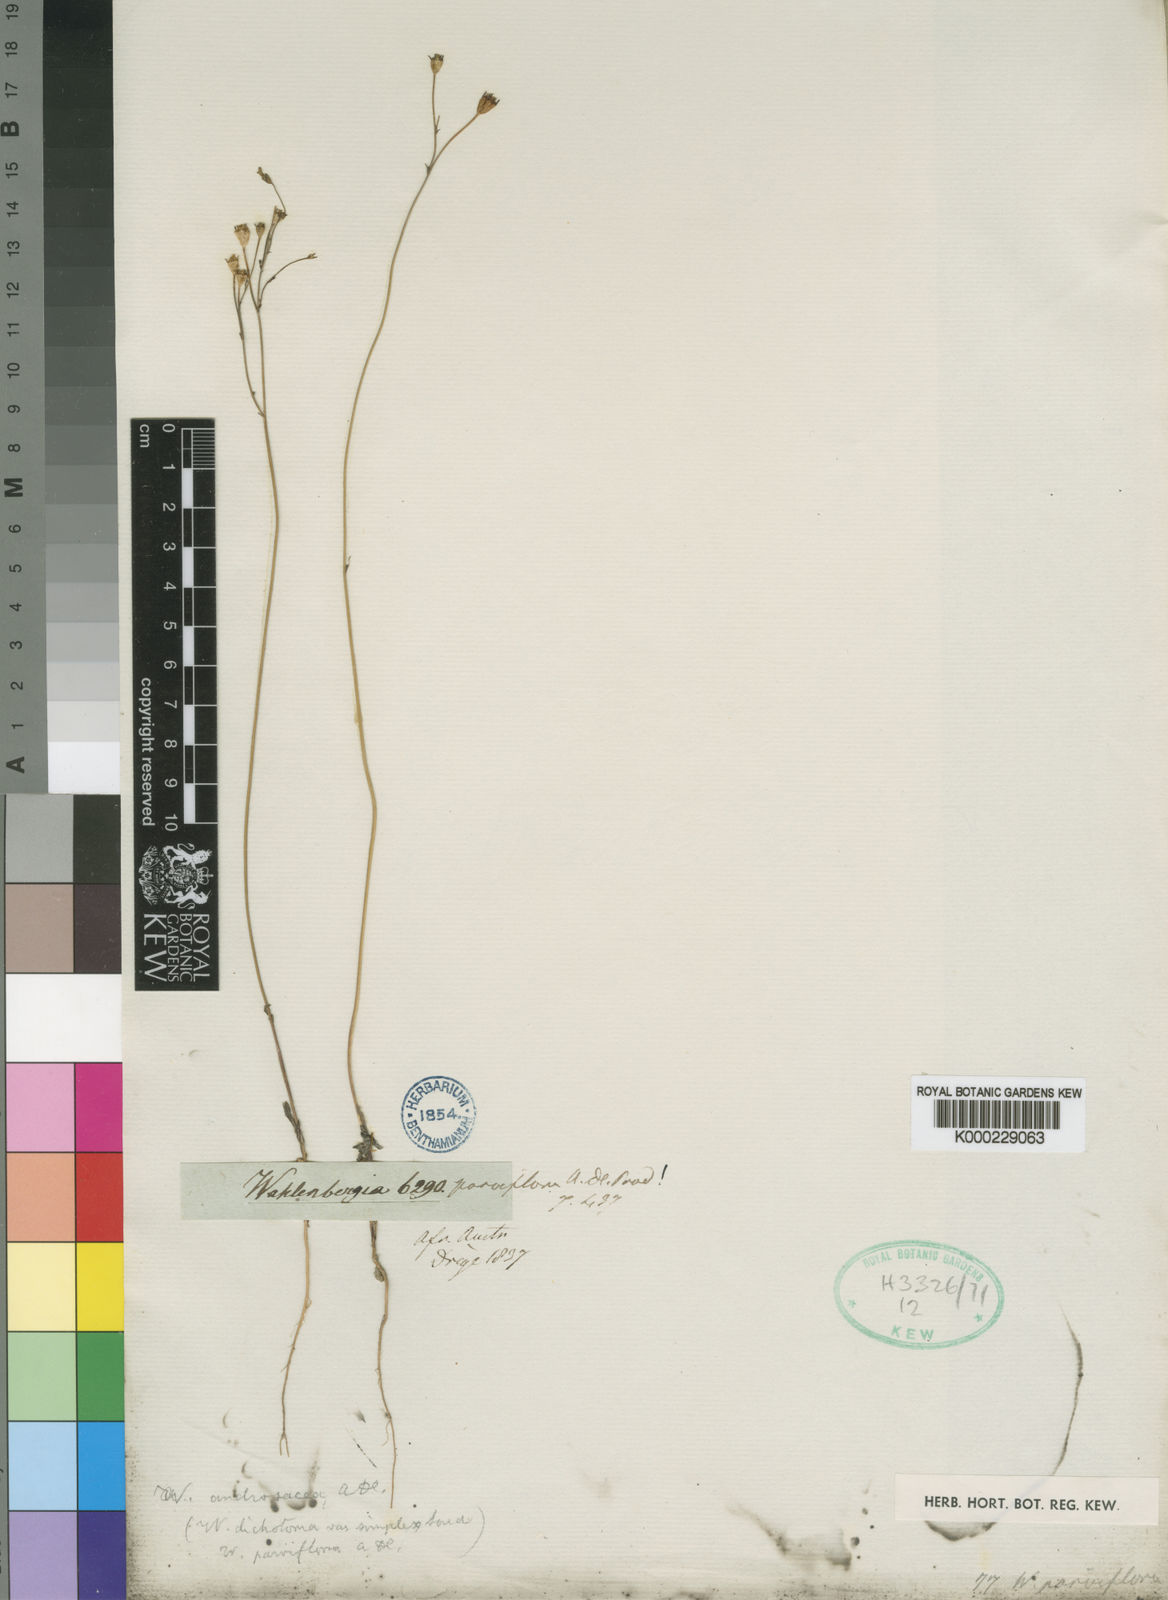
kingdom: Plantae
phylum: Tracheophyta
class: Magnoliopsida
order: Asterales
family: Campanulaceae
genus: Wahlenbergia
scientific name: Wahlenbergia dichotoma
